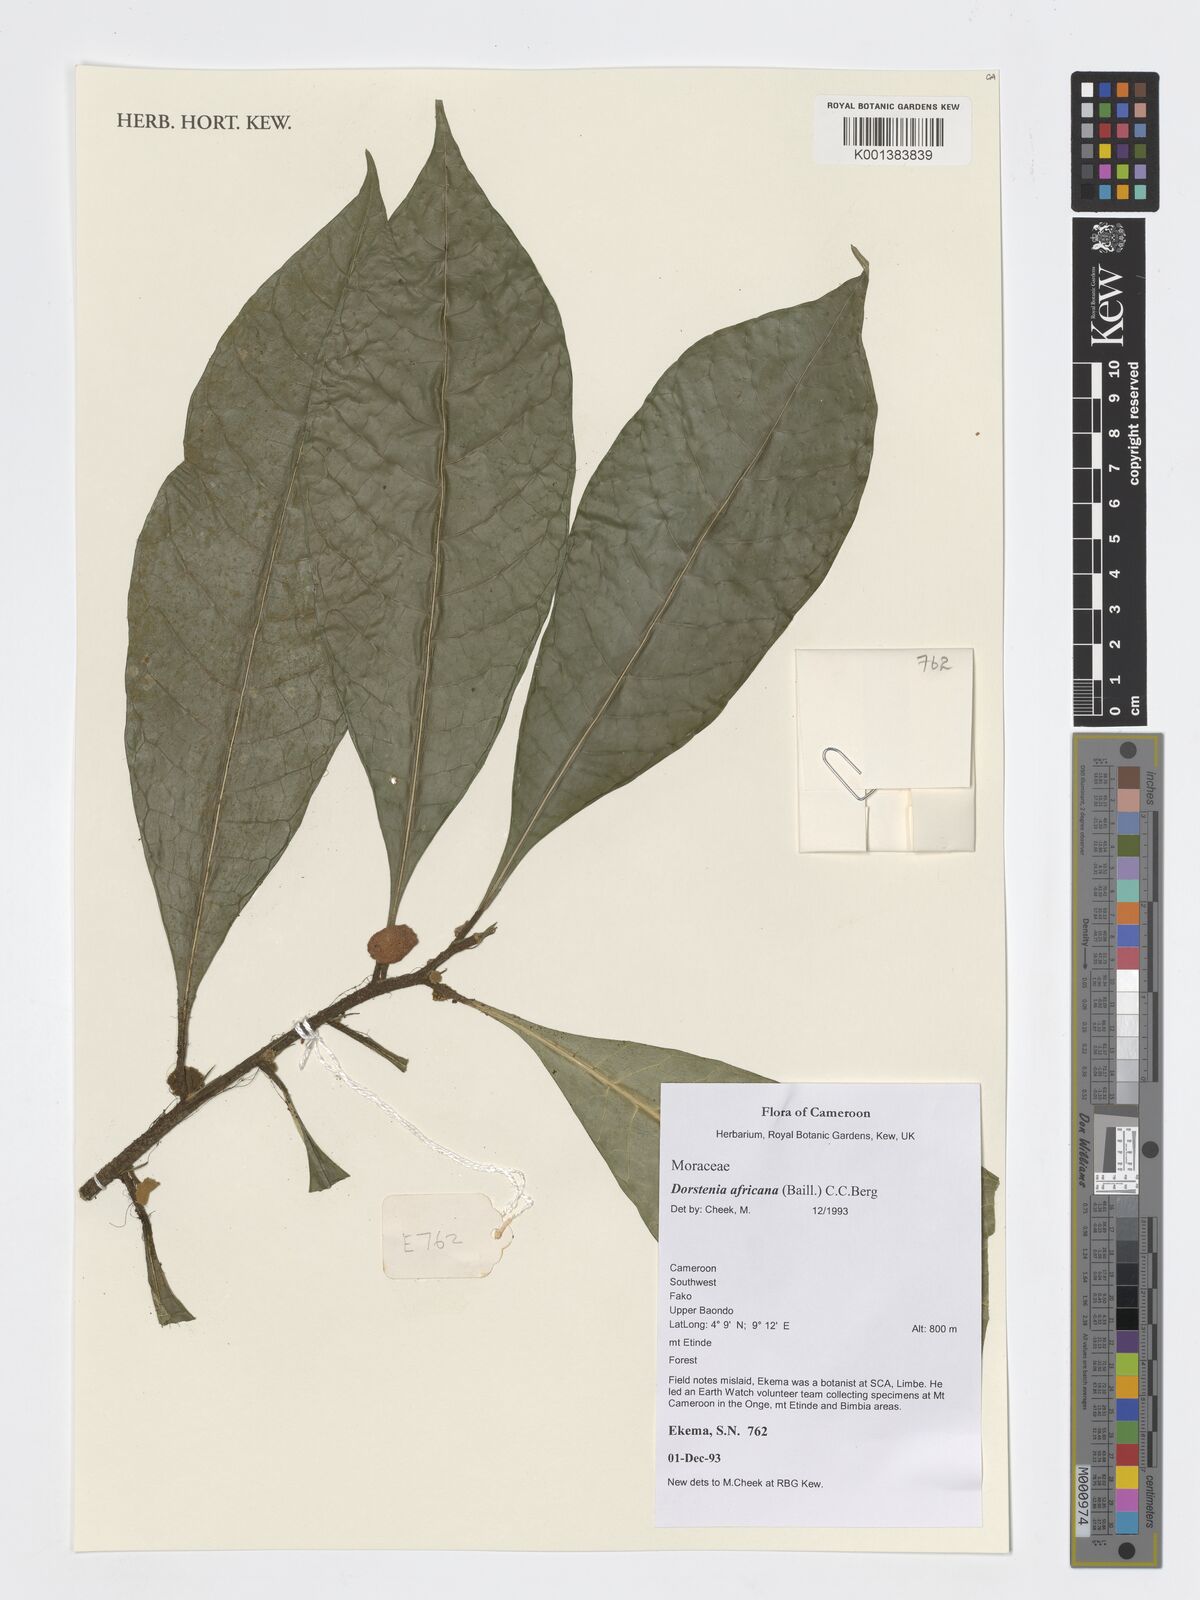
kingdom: Plantae
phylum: Tracheophyta
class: Magnoliopsida
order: Rosales
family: Moraceae
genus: Dorstenia
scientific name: Dorstenia africana
